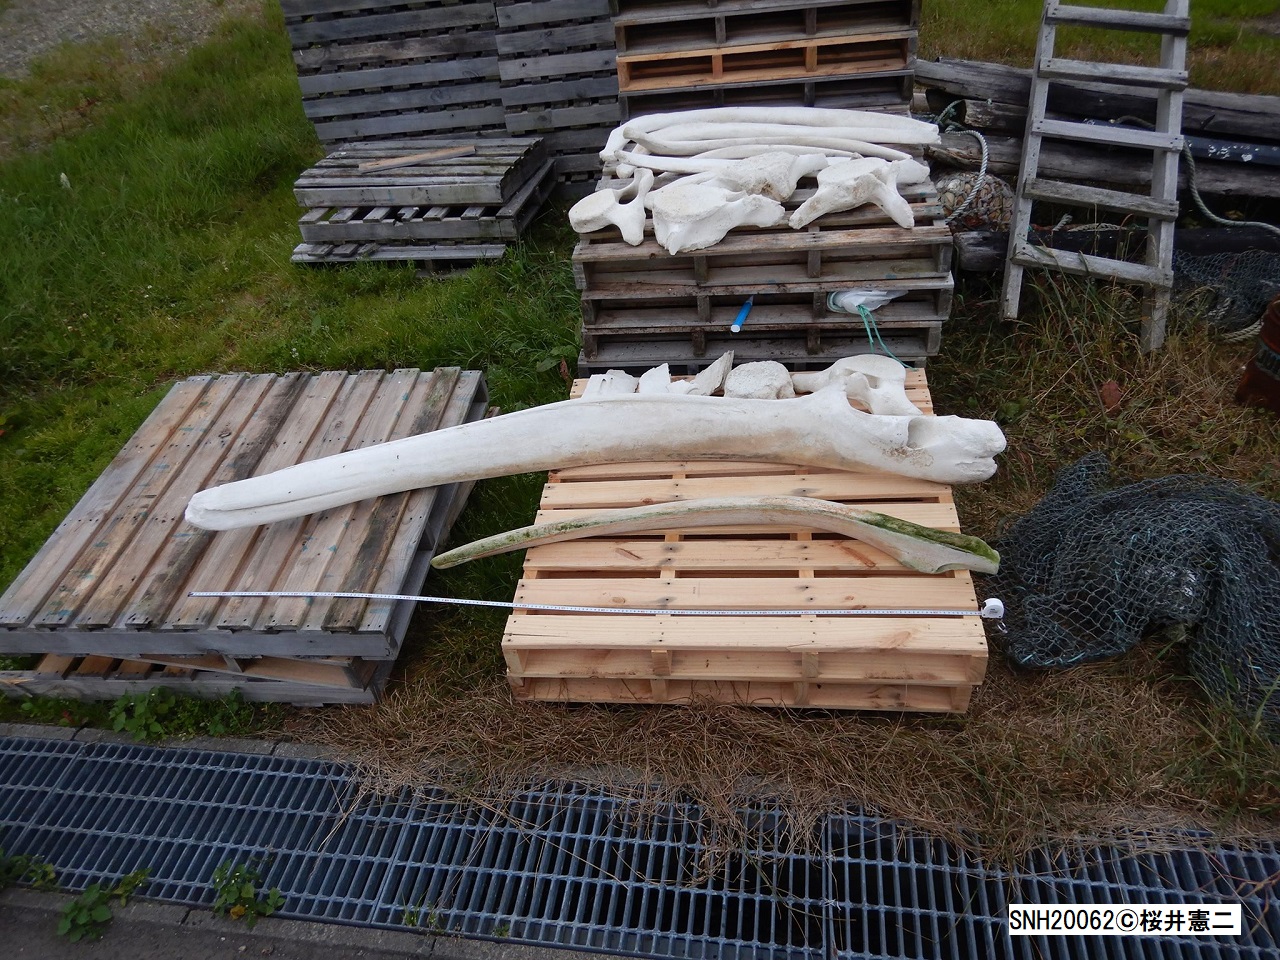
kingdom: Animalia
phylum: Chordata
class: Mammalia
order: Cetacea
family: Balaenopteridae
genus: Balaenoptera
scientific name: Balaenoptera
